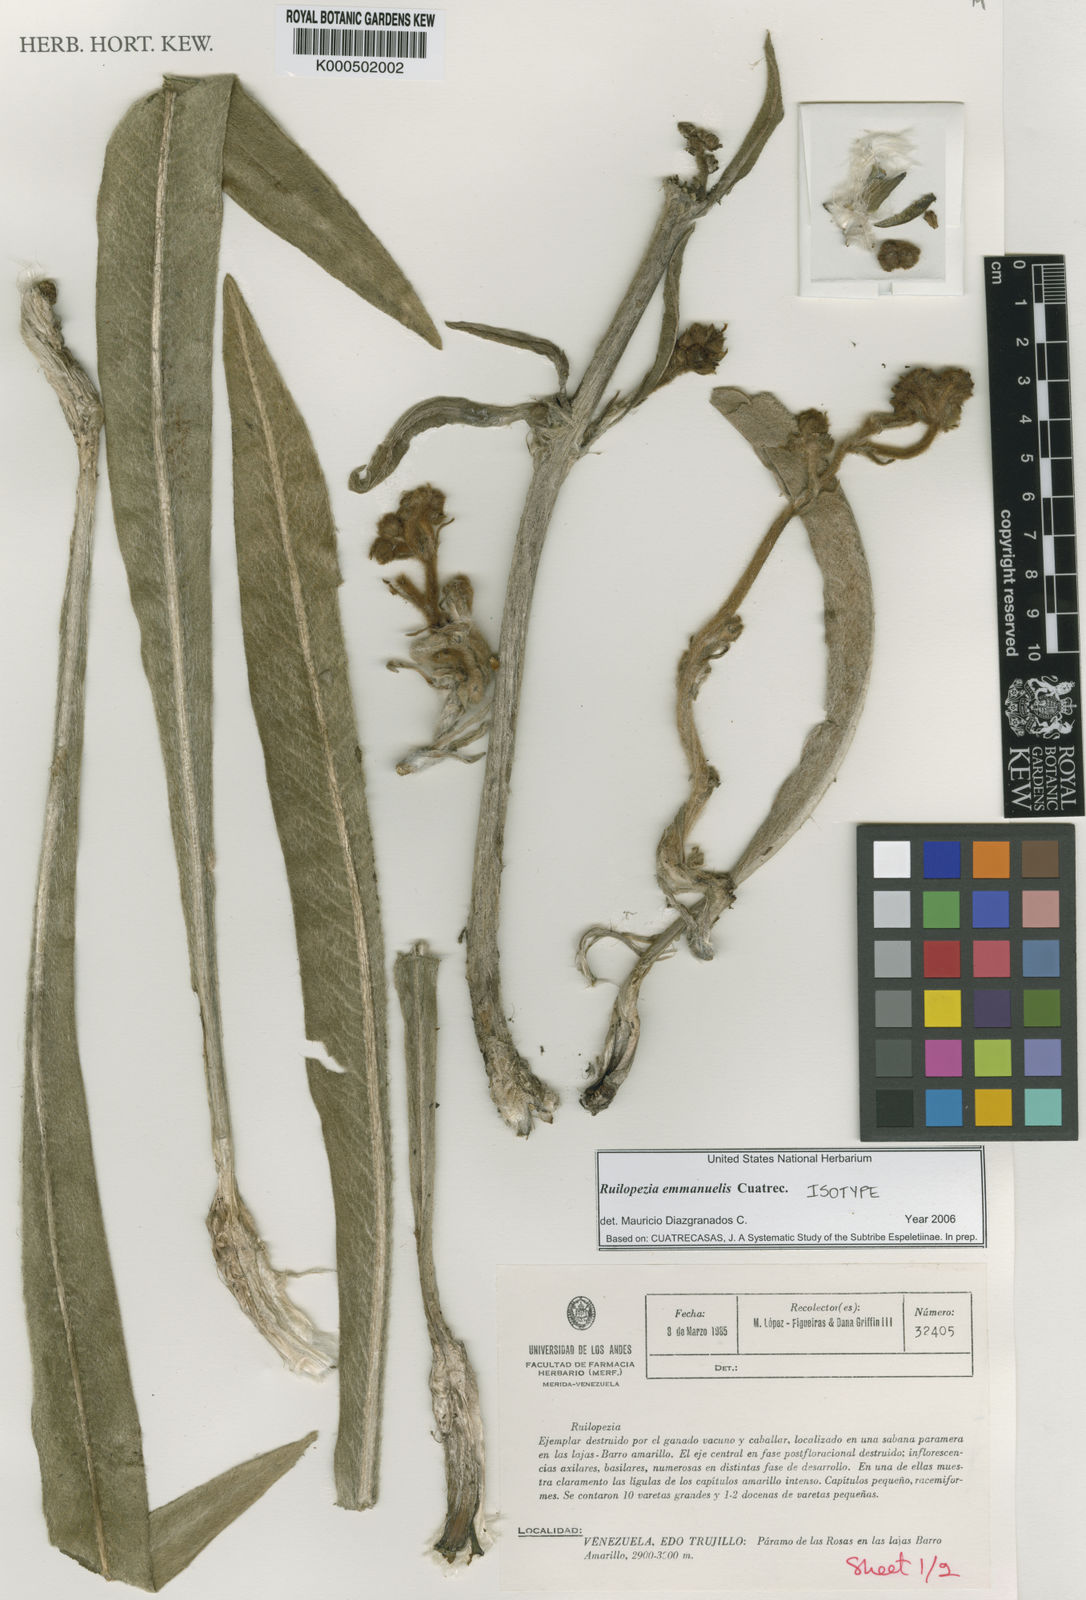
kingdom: Plantae
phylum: Tracheophyta
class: Magnoliopsida
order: Asterales
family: Asteraceae
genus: Espeletia
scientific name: Espeletia emmanuelis
